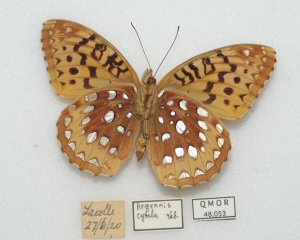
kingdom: Animalia
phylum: Arthropoda
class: Insecta
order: Lepidoptera
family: Nymphalidae
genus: Speyeria
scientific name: Speyeria cybele
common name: Great Spangled Fritillary
